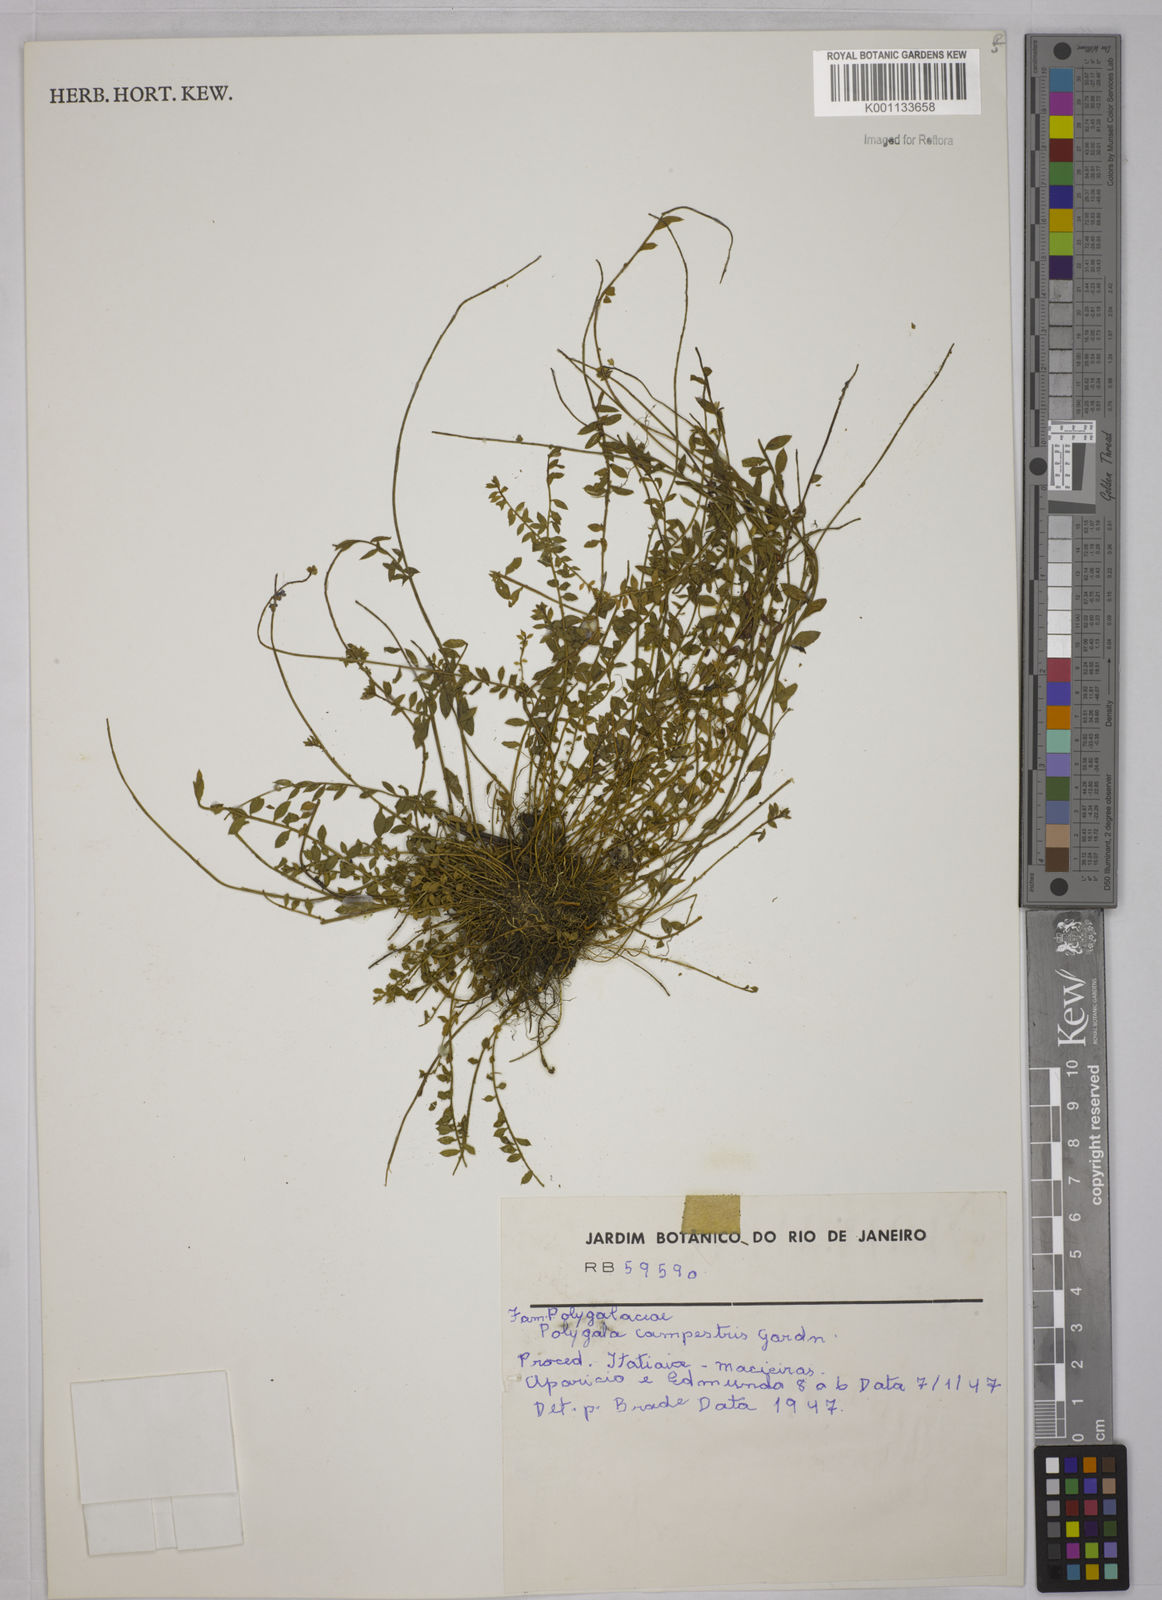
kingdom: Plantae
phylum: Tracheophyta
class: Magnoliopsida
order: Fabales
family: Polygalaceae
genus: Polygala
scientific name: Polygala campestris
